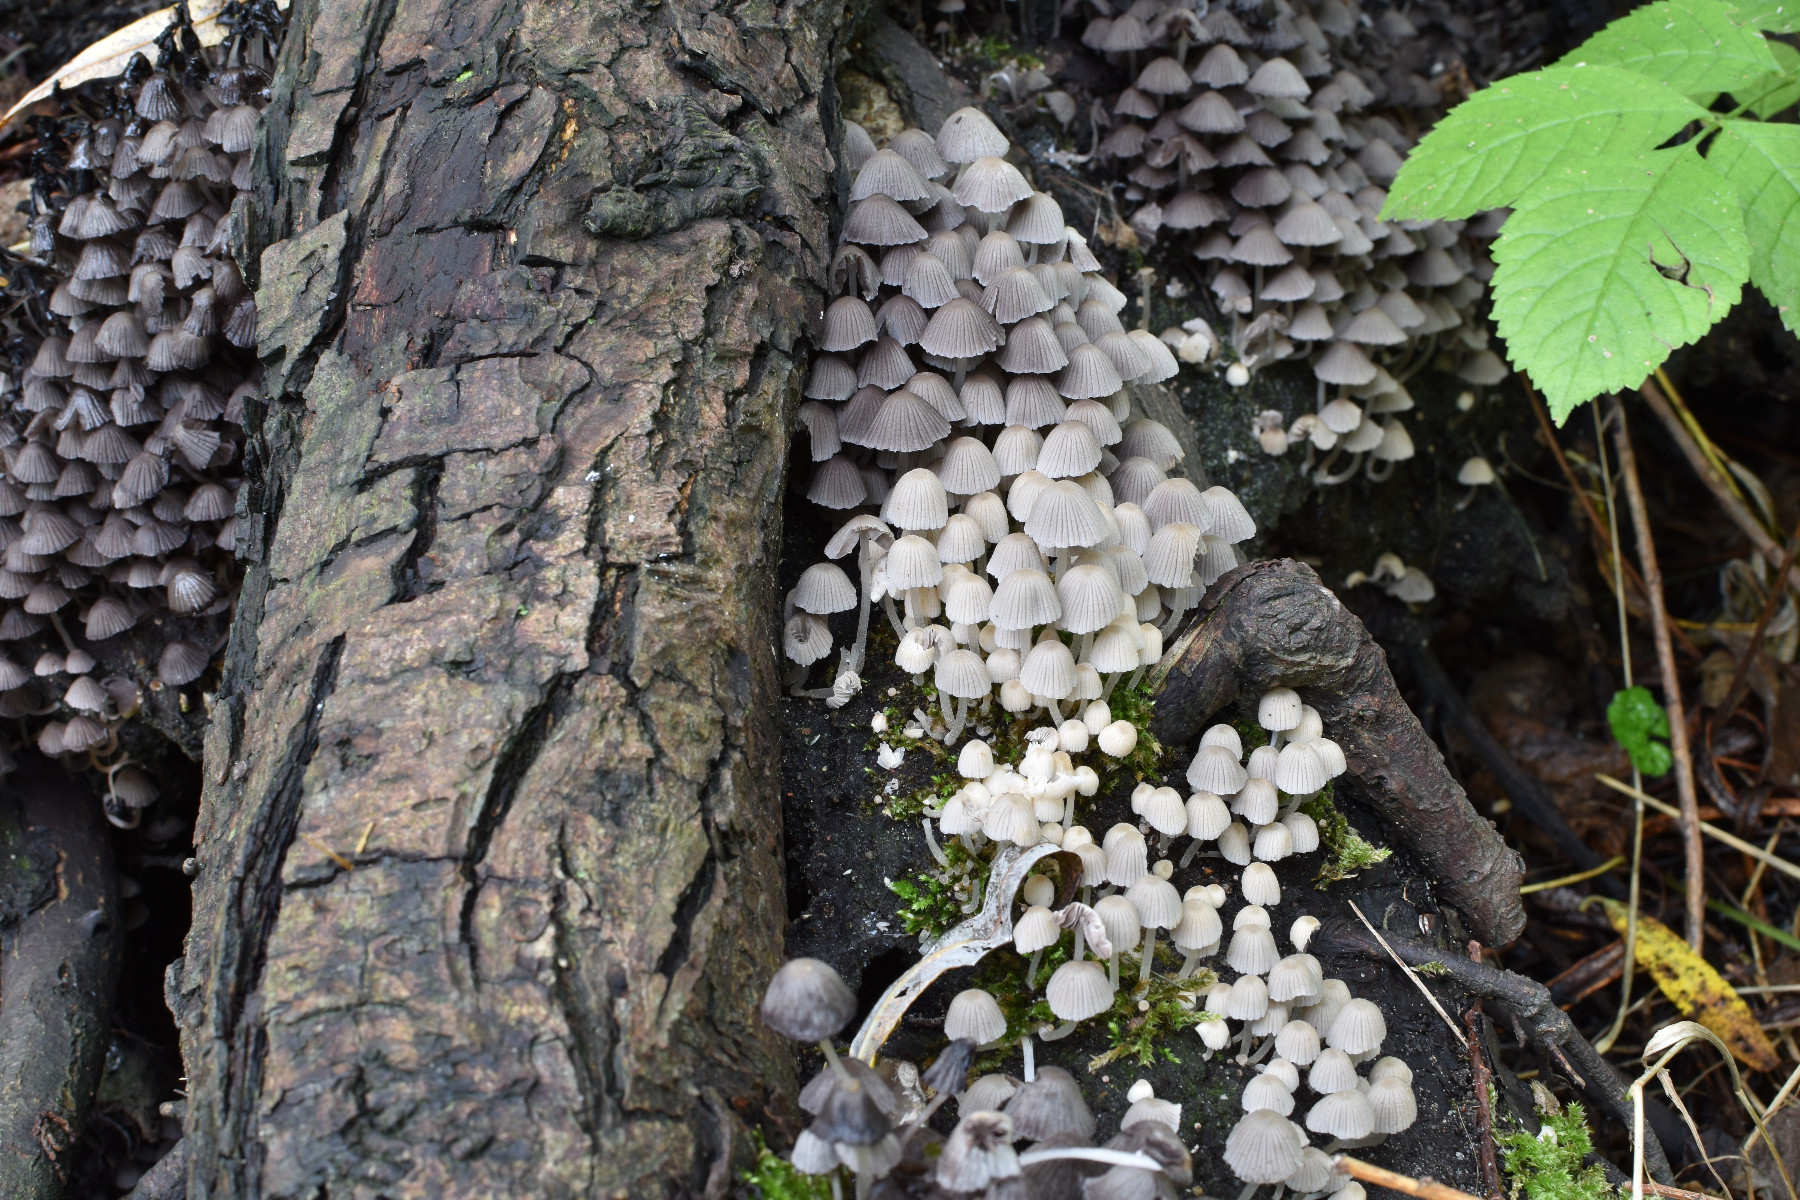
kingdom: Fungi
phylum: Basidiomycota
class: Agaricomycetes
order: Agaricales
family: Psathyrellaceae
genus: Coprinellus
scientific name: Coprinellus disseminatus
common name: bredsået blækhat
